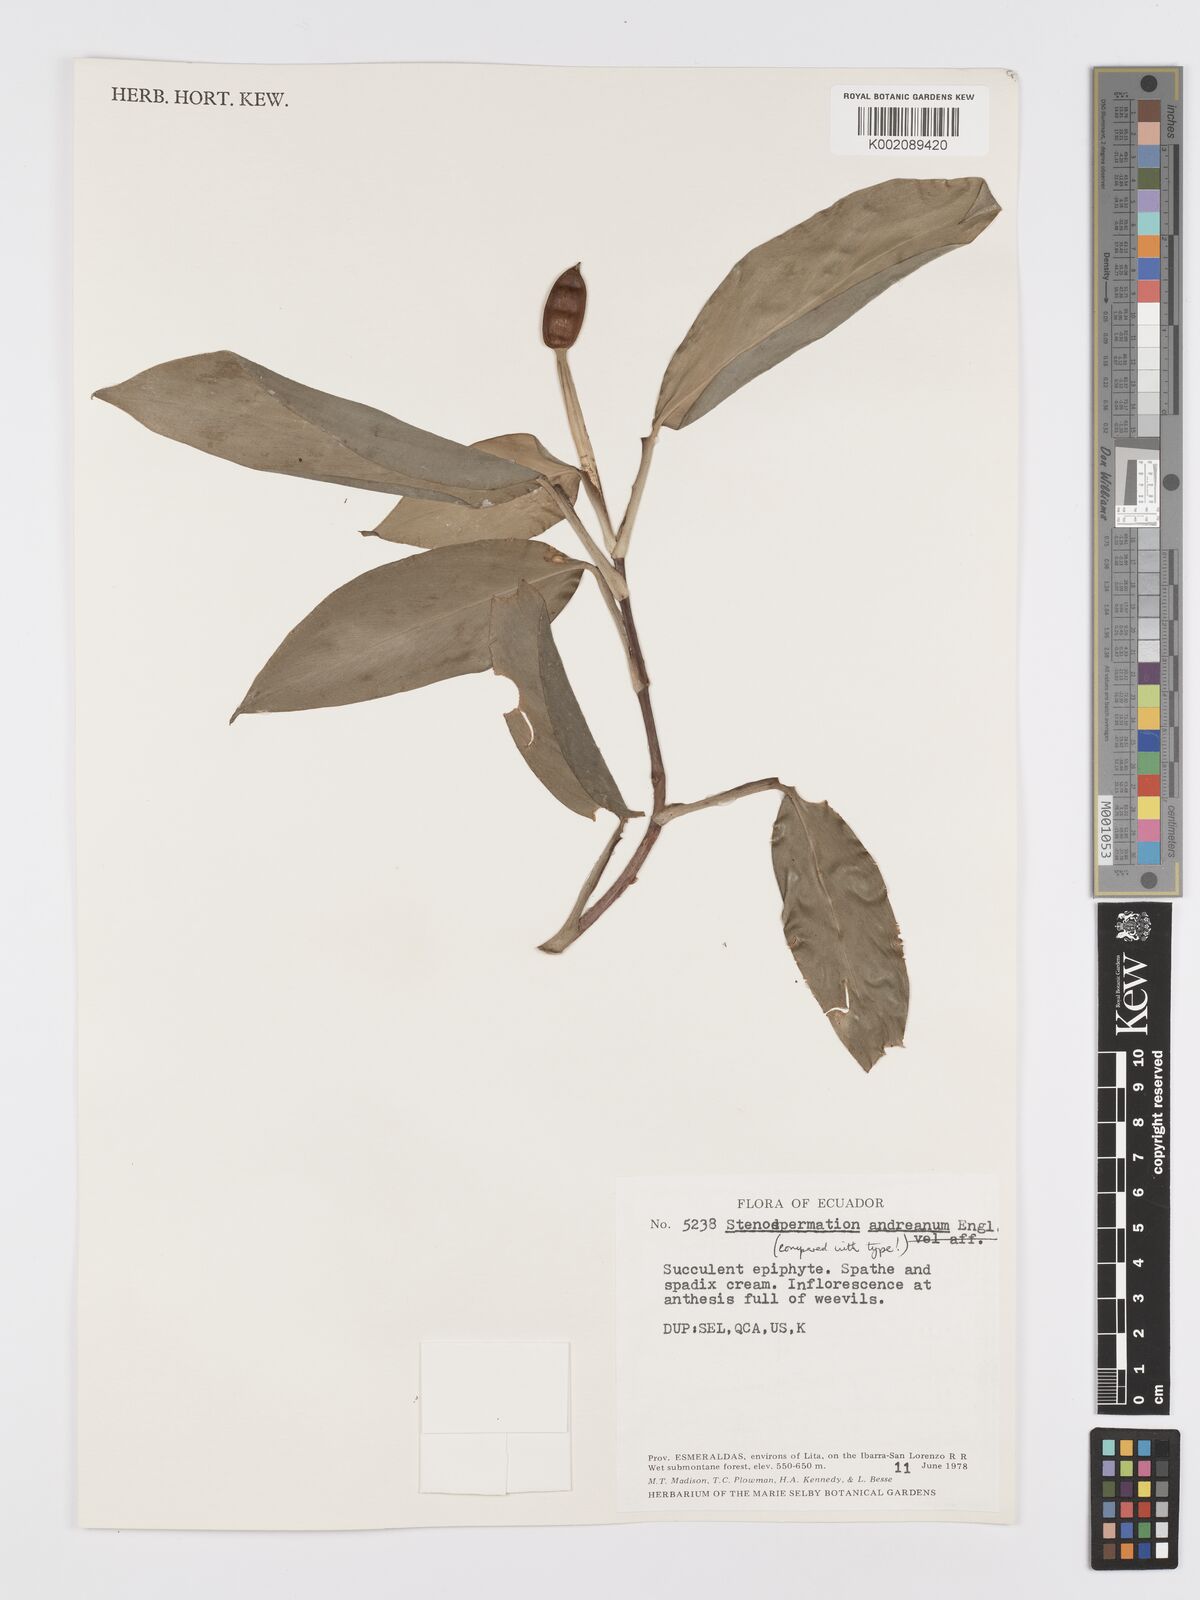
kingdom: Plantae
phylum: Tracheophyta
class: Liliopsida
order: Alismatales
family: Araceae
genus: Stenospermation
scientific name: Stenospermation andreanum
